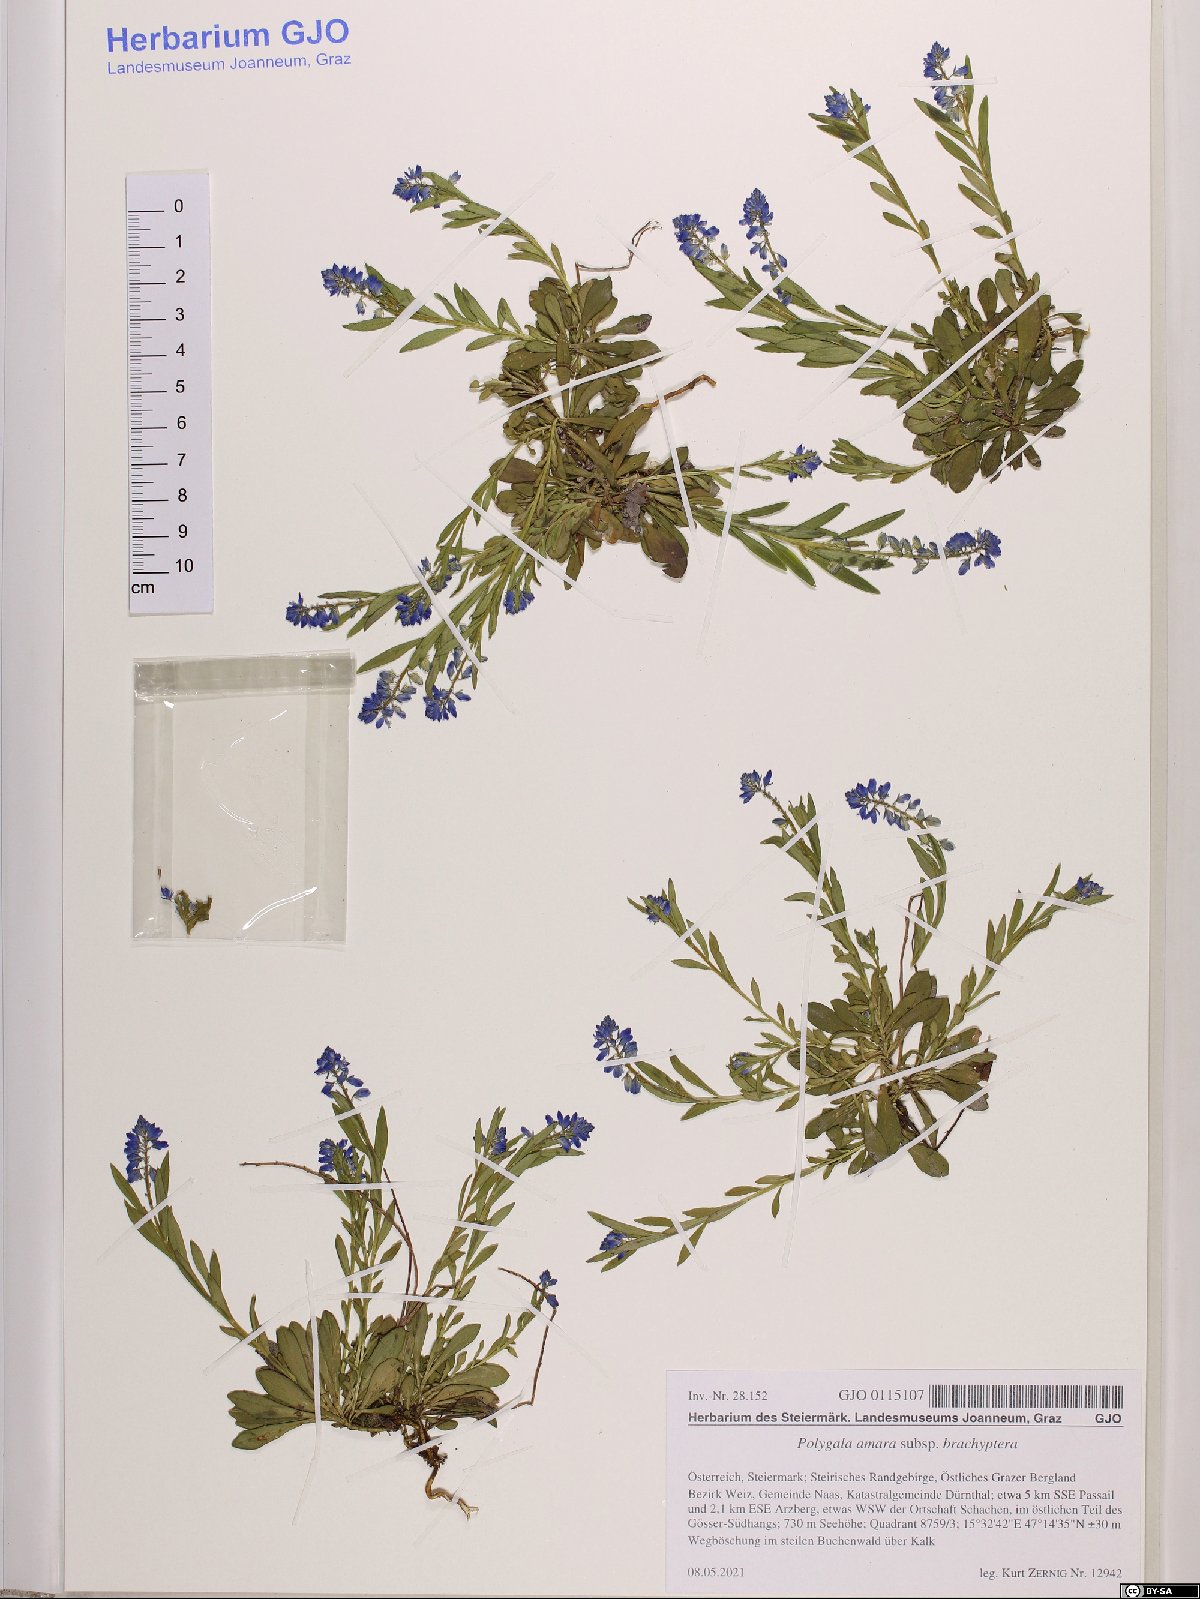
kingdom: Plantae
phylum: Tracheophyta
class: Magnoliopsida
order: Fabales
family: Polygalaceae
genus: Polygala
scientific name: Polygala amara
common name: Milkwort
